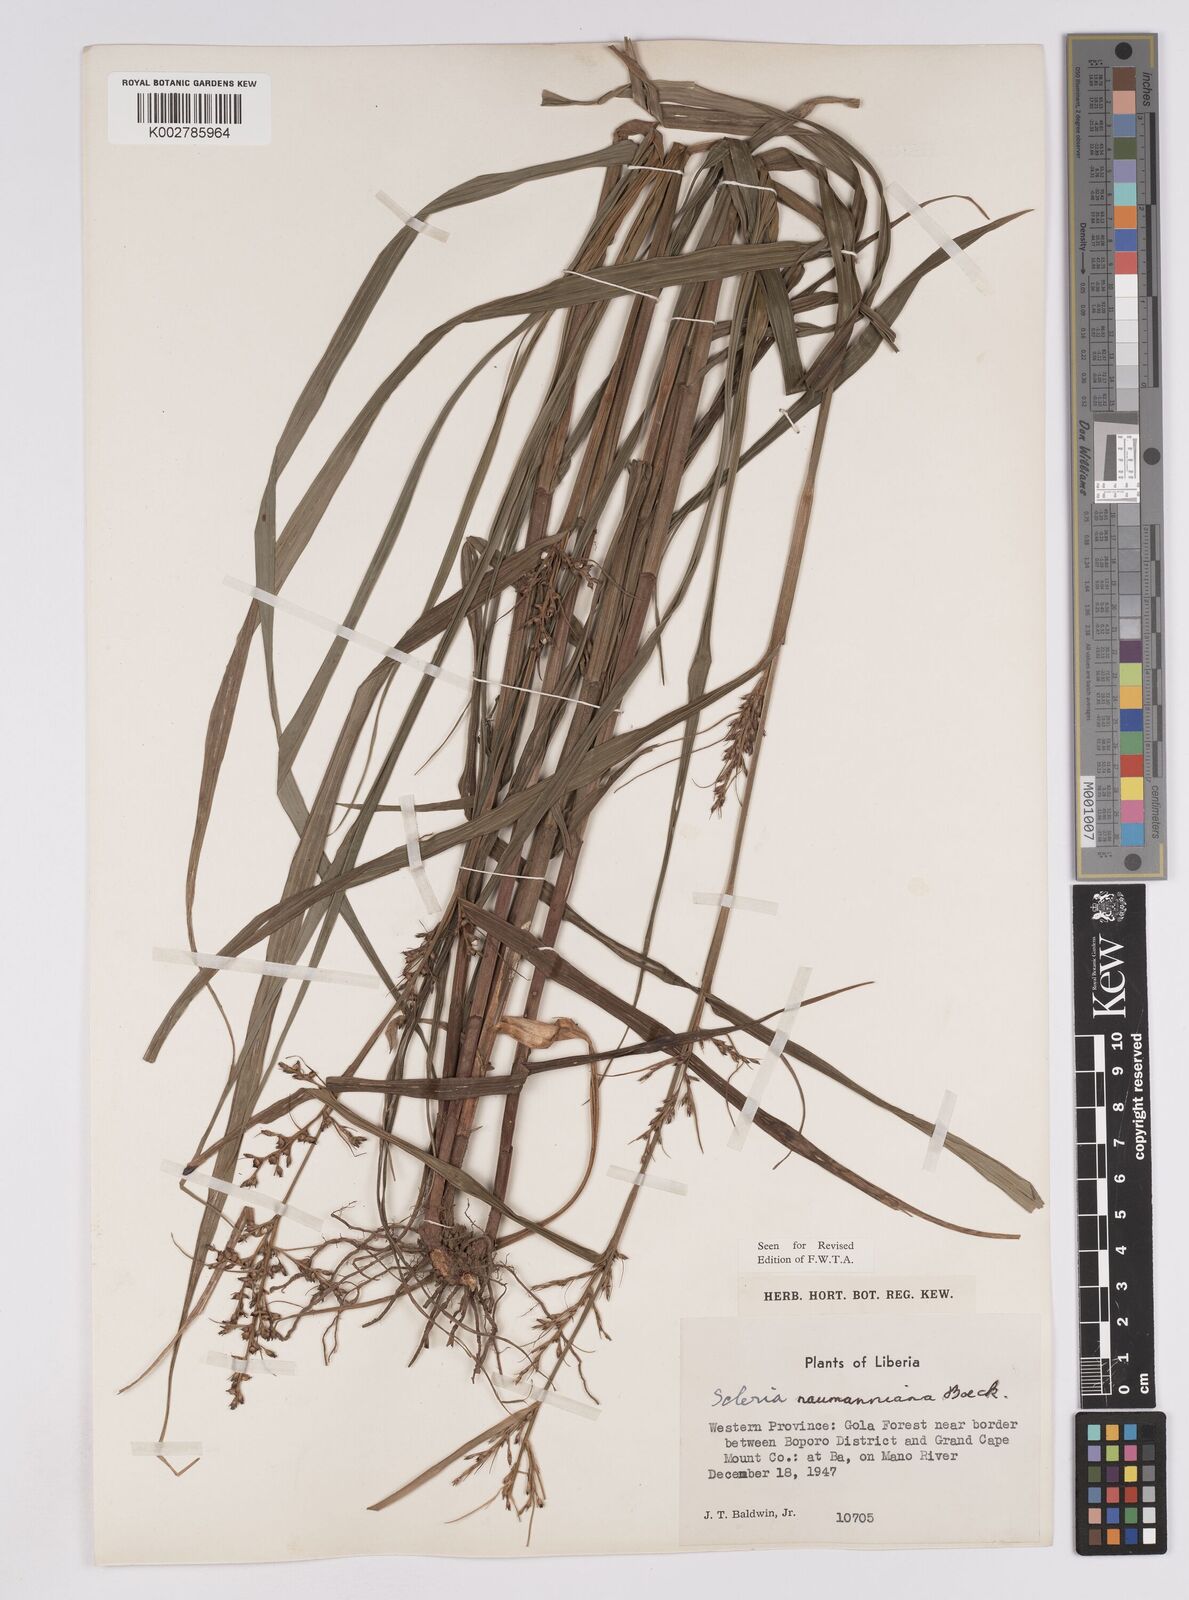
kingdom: Plantae
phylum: Tracheophyta
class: Liliopsida
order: Poales
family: Cyperaceae
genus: Scleria
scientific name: Scleria naumanniana
